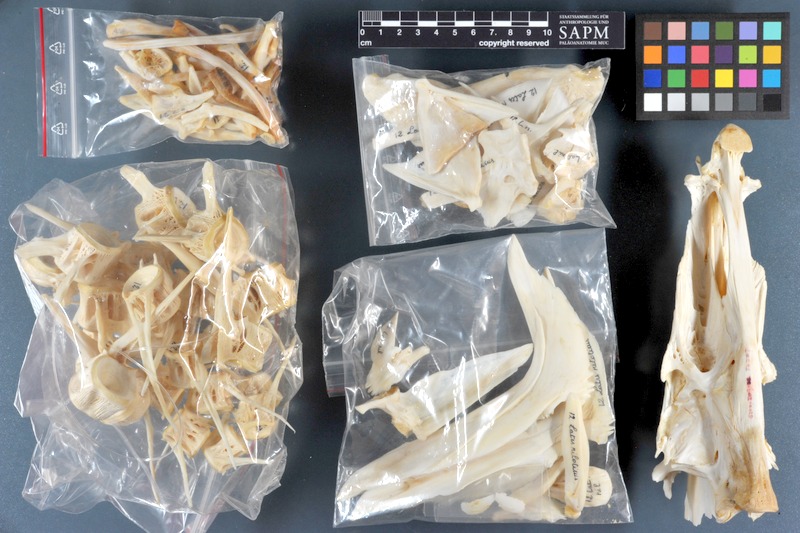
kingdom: Animalia
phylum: Chordata
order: Perciformes
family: Latidae
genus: Lates
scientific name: Lates niloticus
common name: Nile perch
